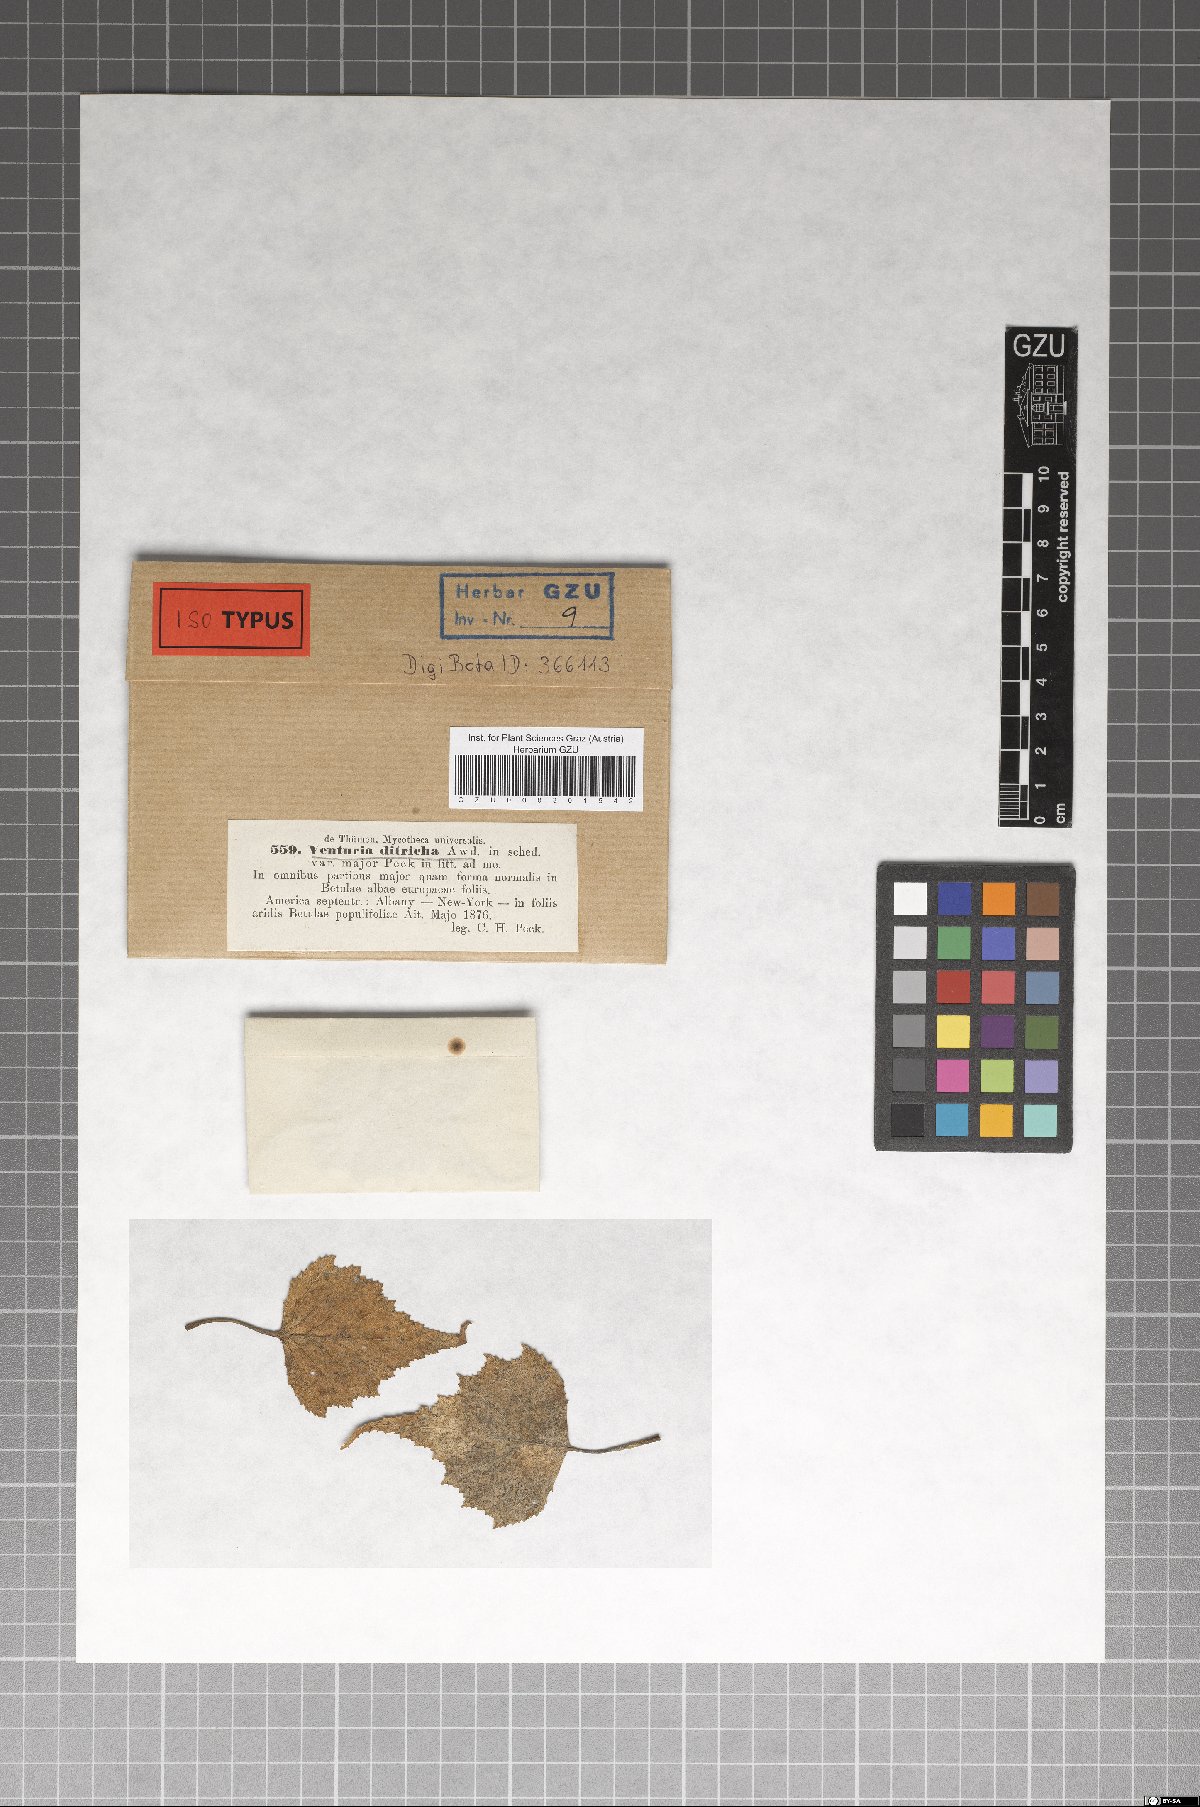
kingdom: Fungi
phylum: Ascomycota
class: Dothideomycetes
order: Venturiales
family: Venturiaceae
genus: Venturia
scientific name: Venturia ditricha
